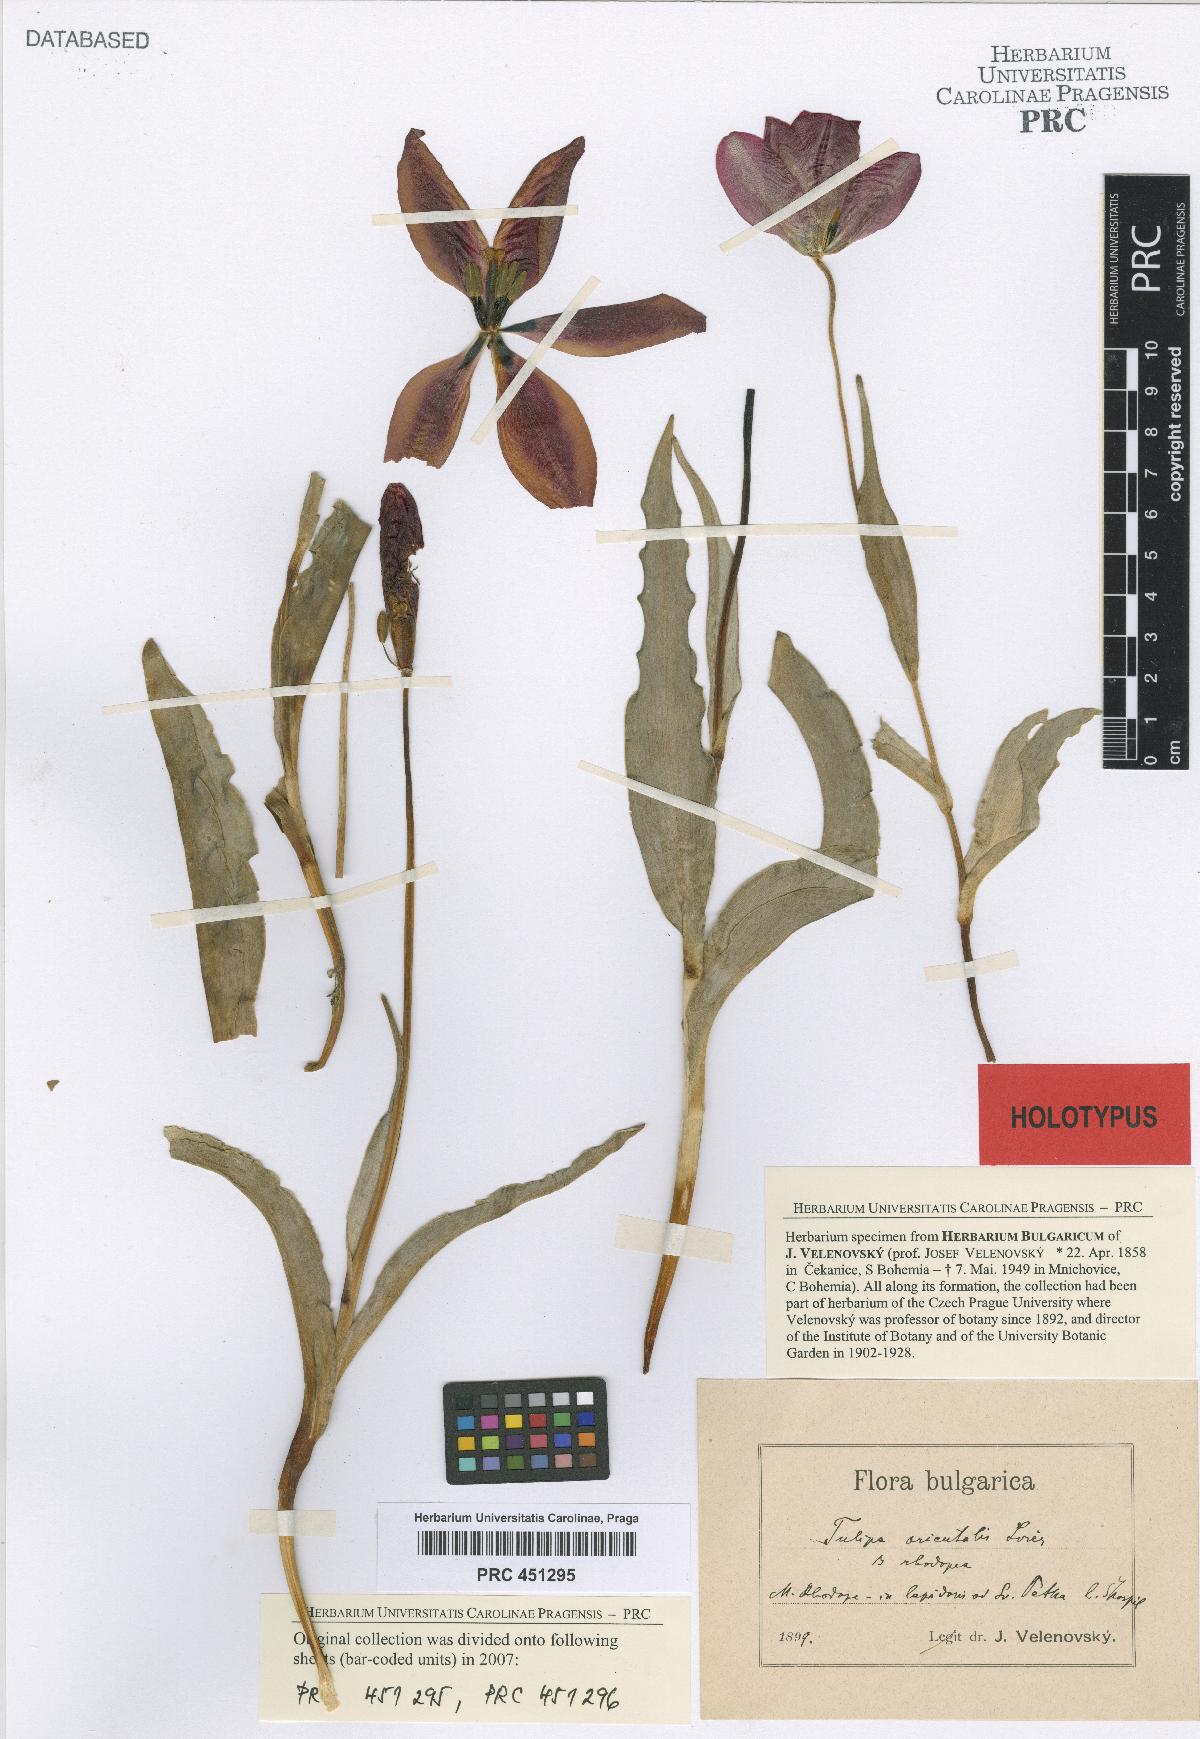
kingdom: Plantae
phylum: Tracheophyta
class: Liliopsida
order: Liliales
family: Liliaceae
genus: Tulipa
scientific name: Tulipa hungarica
